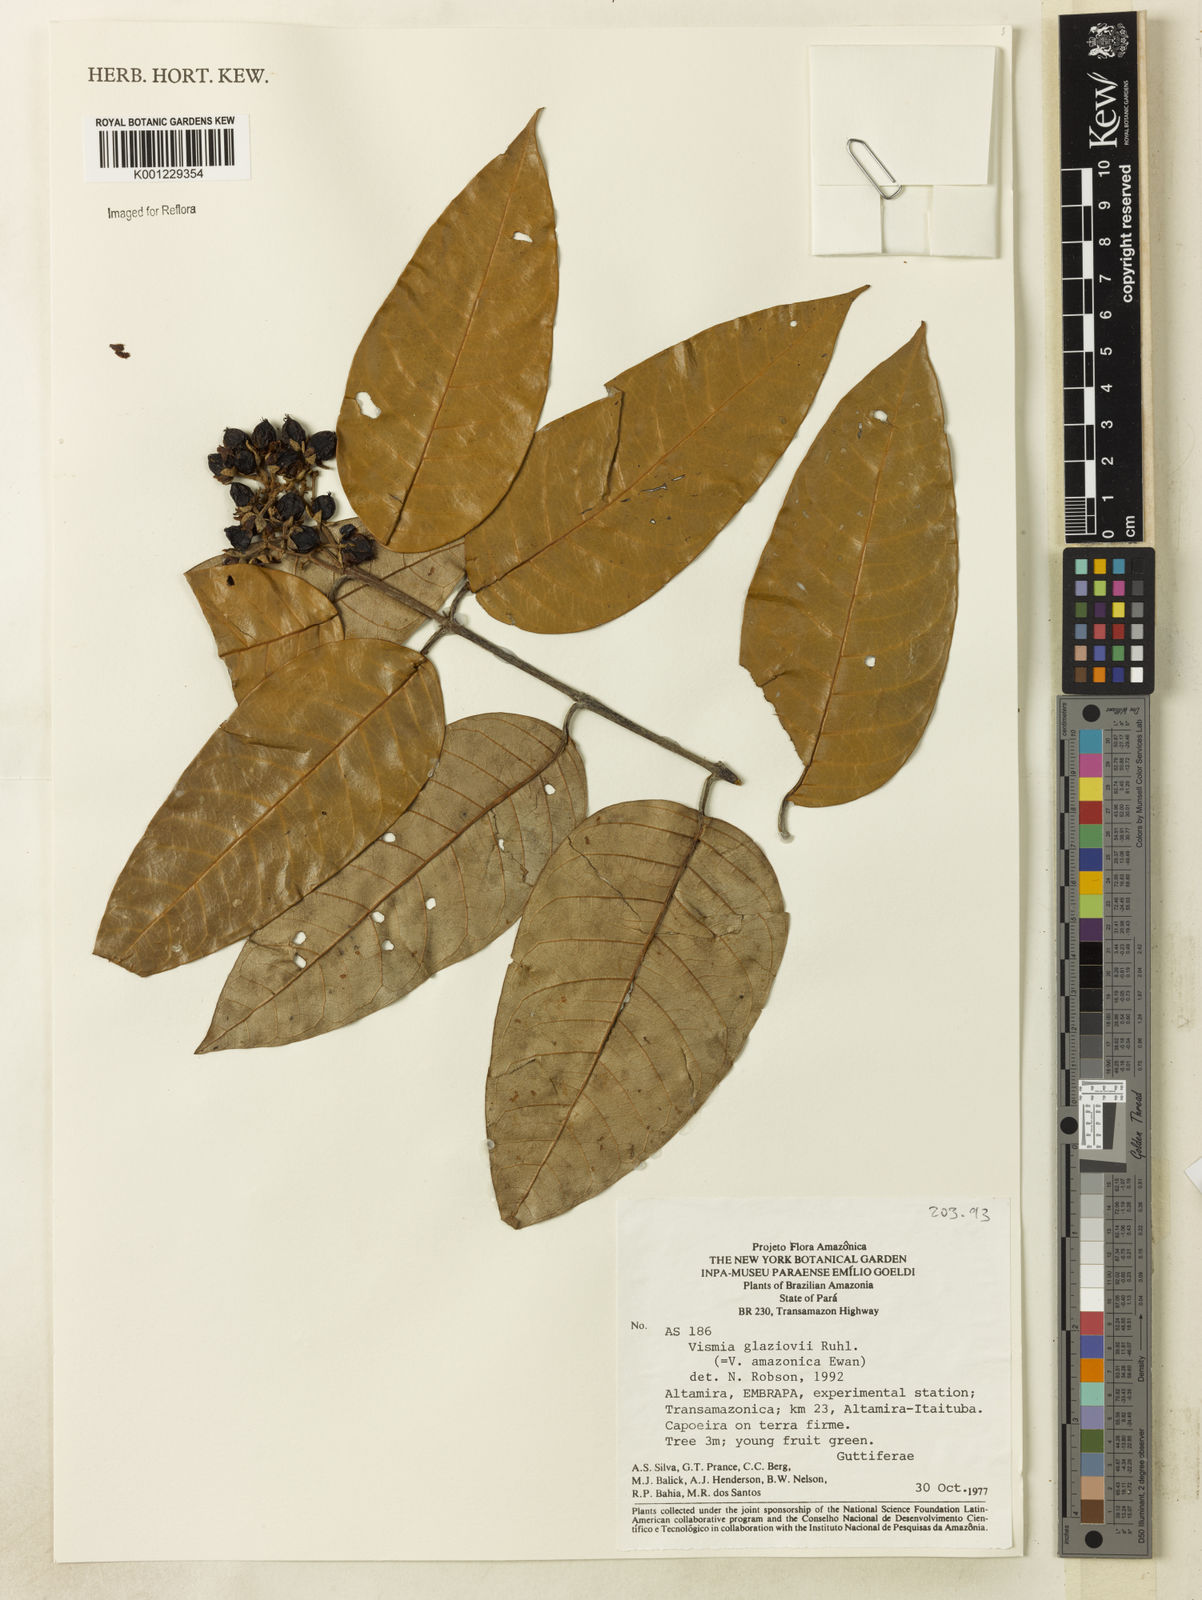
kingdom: Plantae
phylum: Tracheophyta
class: Magnoliopsida
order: Malpighiales
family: Hypericaceae
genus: Vismia
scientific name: Vismia gracilis
